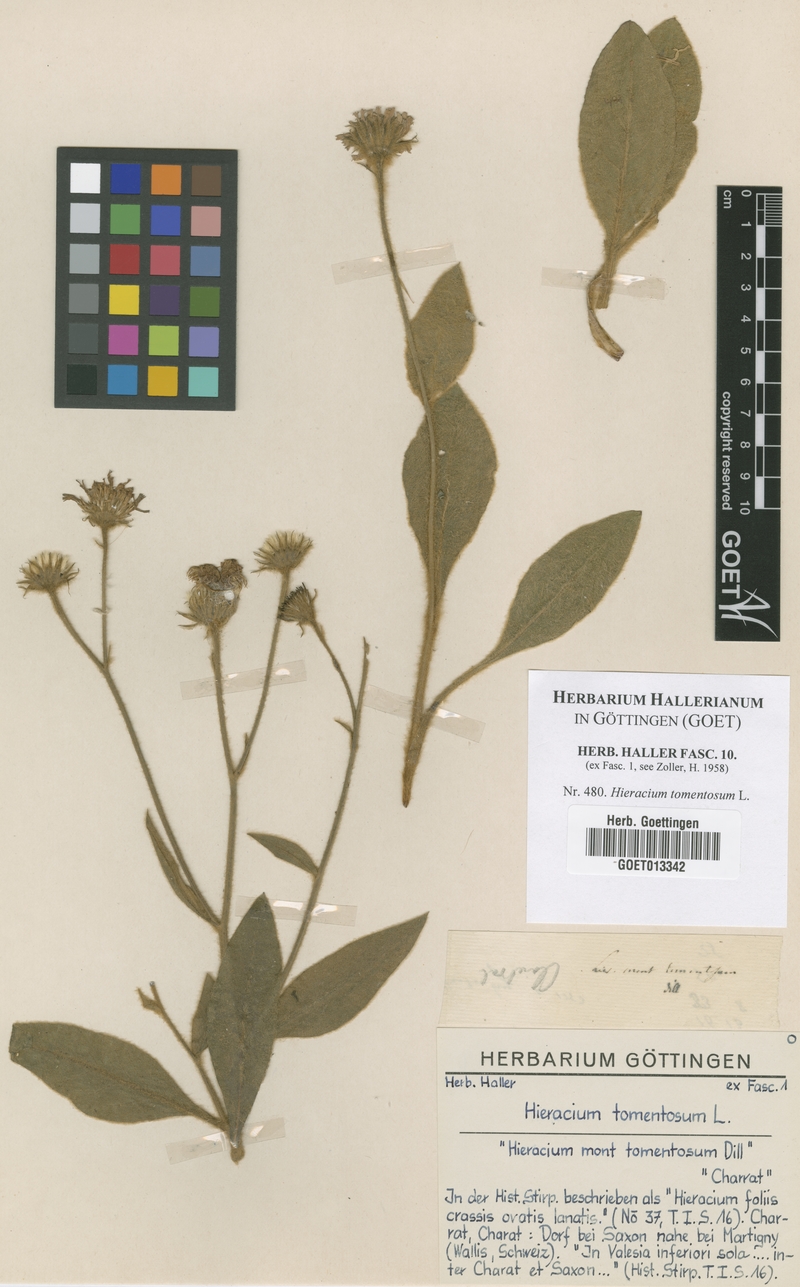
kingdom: Plantae
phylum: Tracheophyta
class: Magnoliopsida
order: Asterales
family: Asteraceae
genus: Hieracium
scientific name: Hieracium tomentosum
